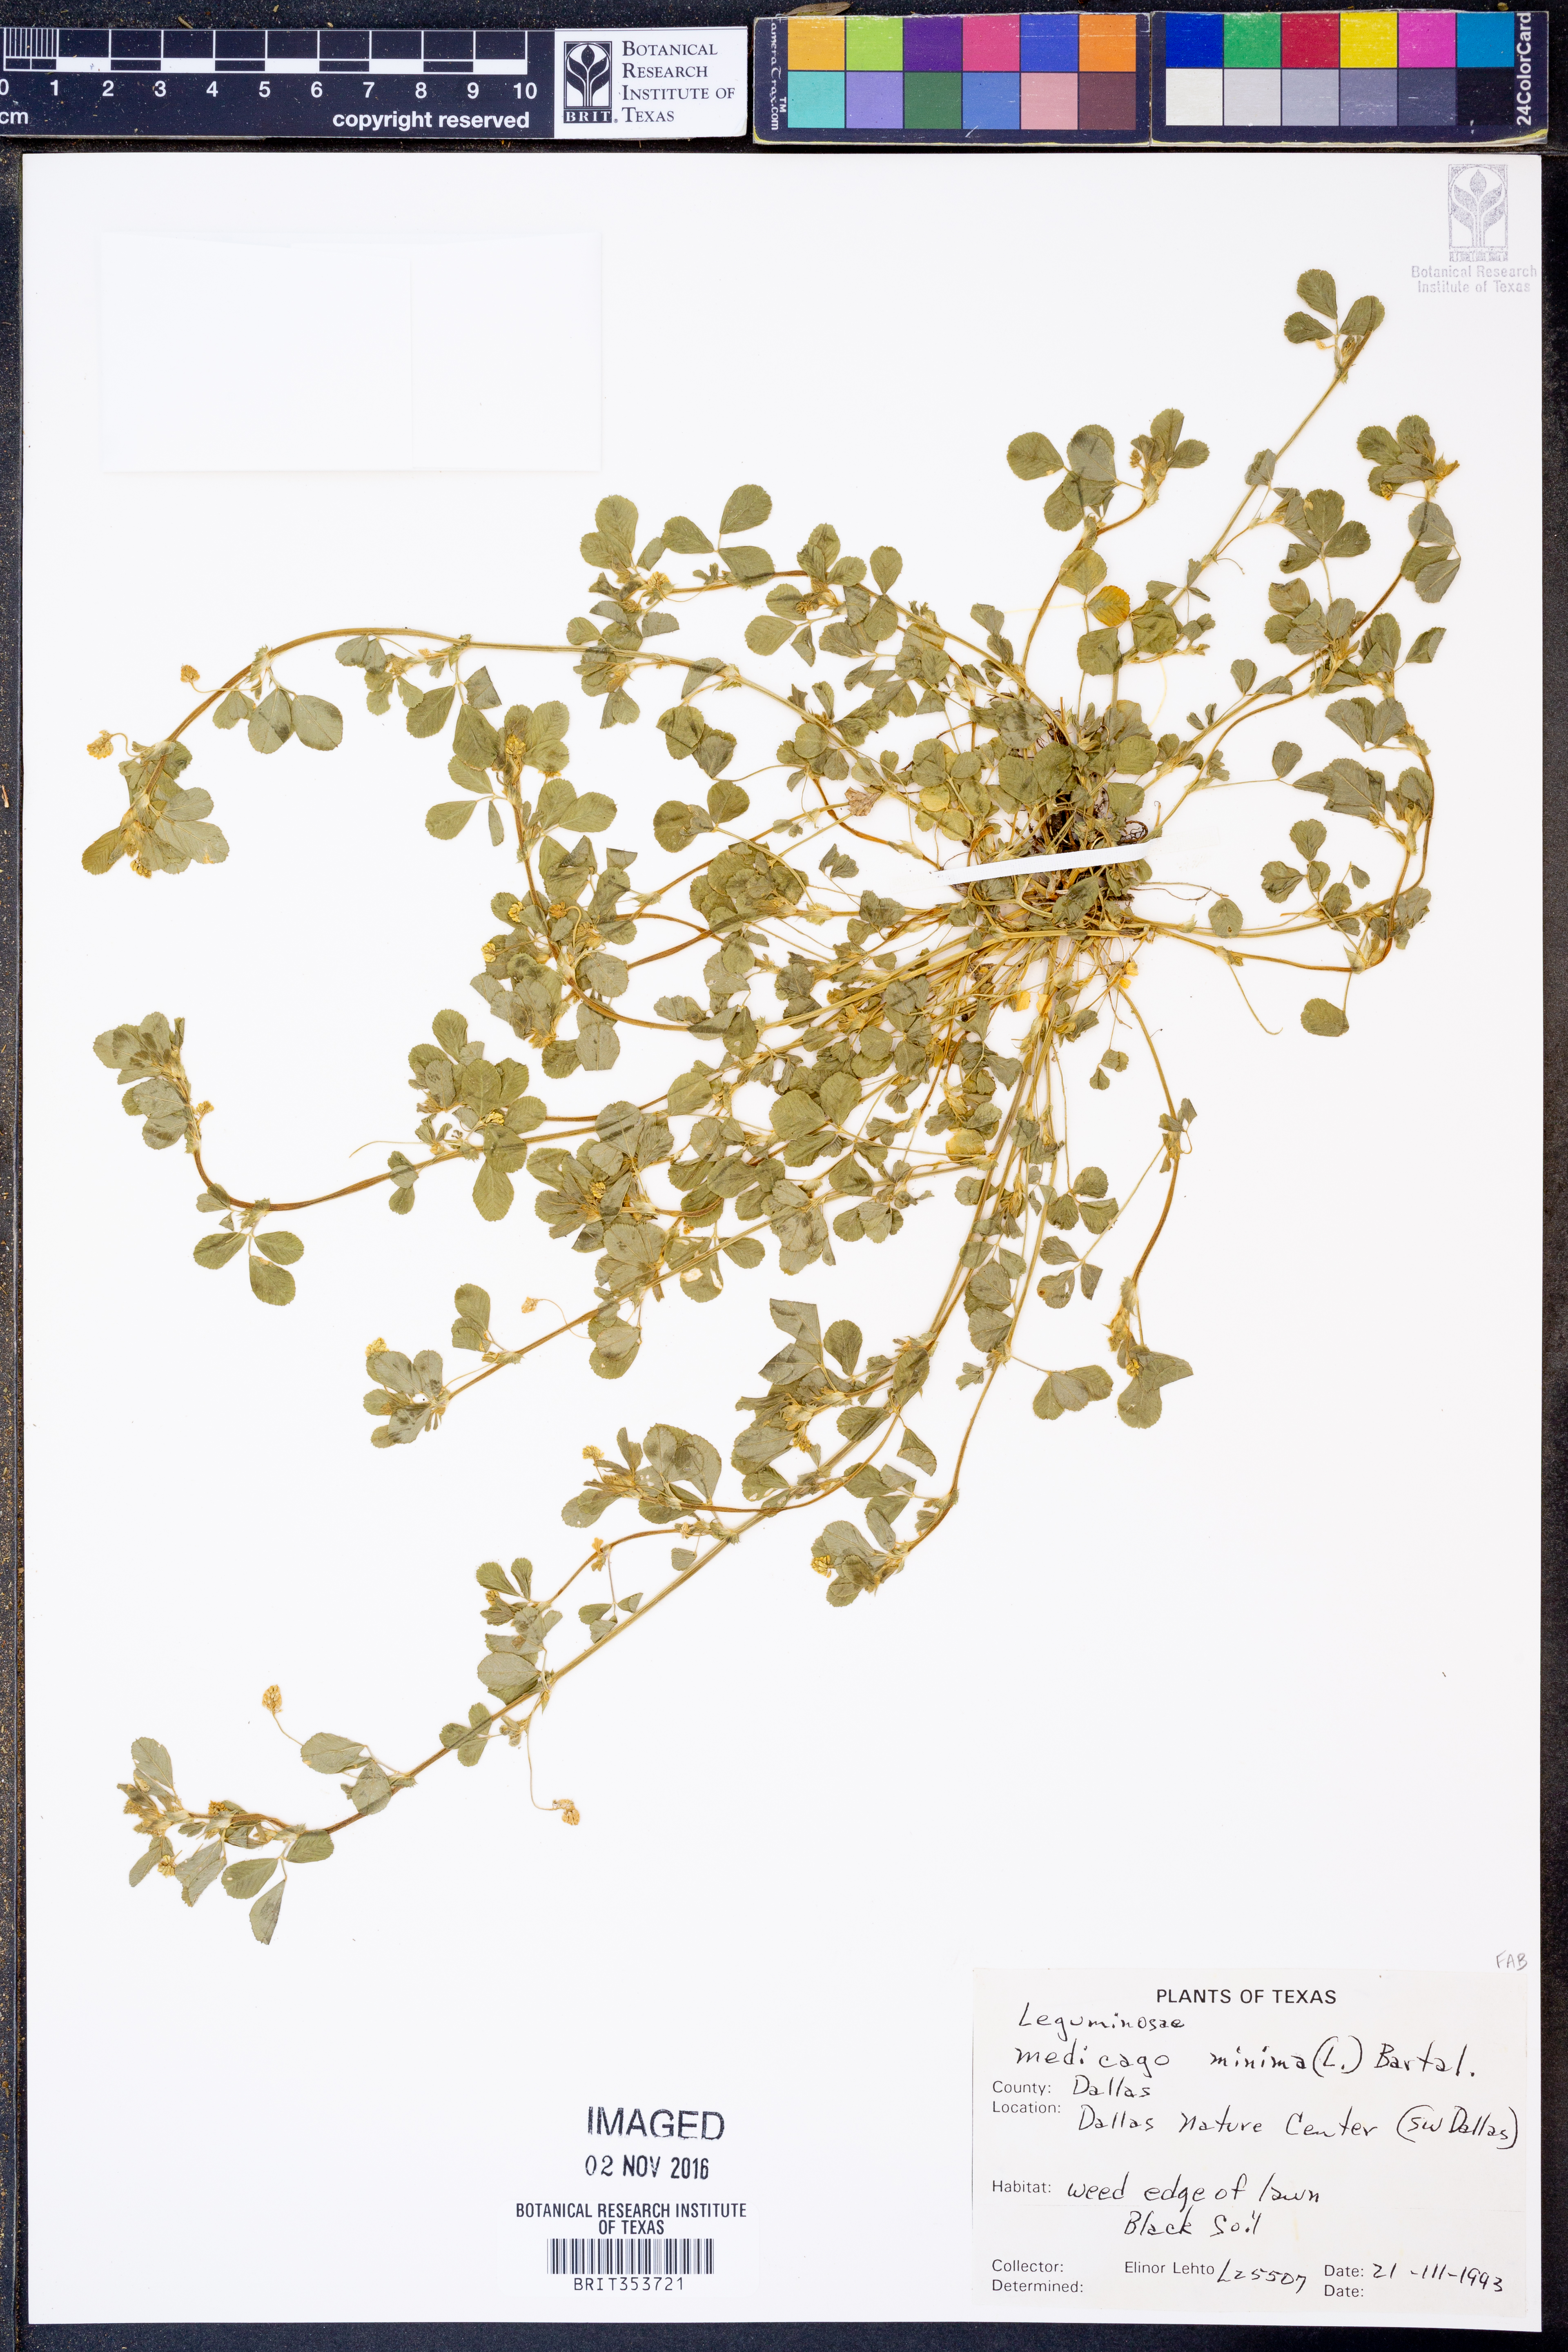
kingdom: Plantae
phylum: Tracheophyta
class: Magnoliopsida
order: Fabales
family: Fabaceae
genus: Medicago
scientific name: Medicago minima
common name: Little bur-clover
